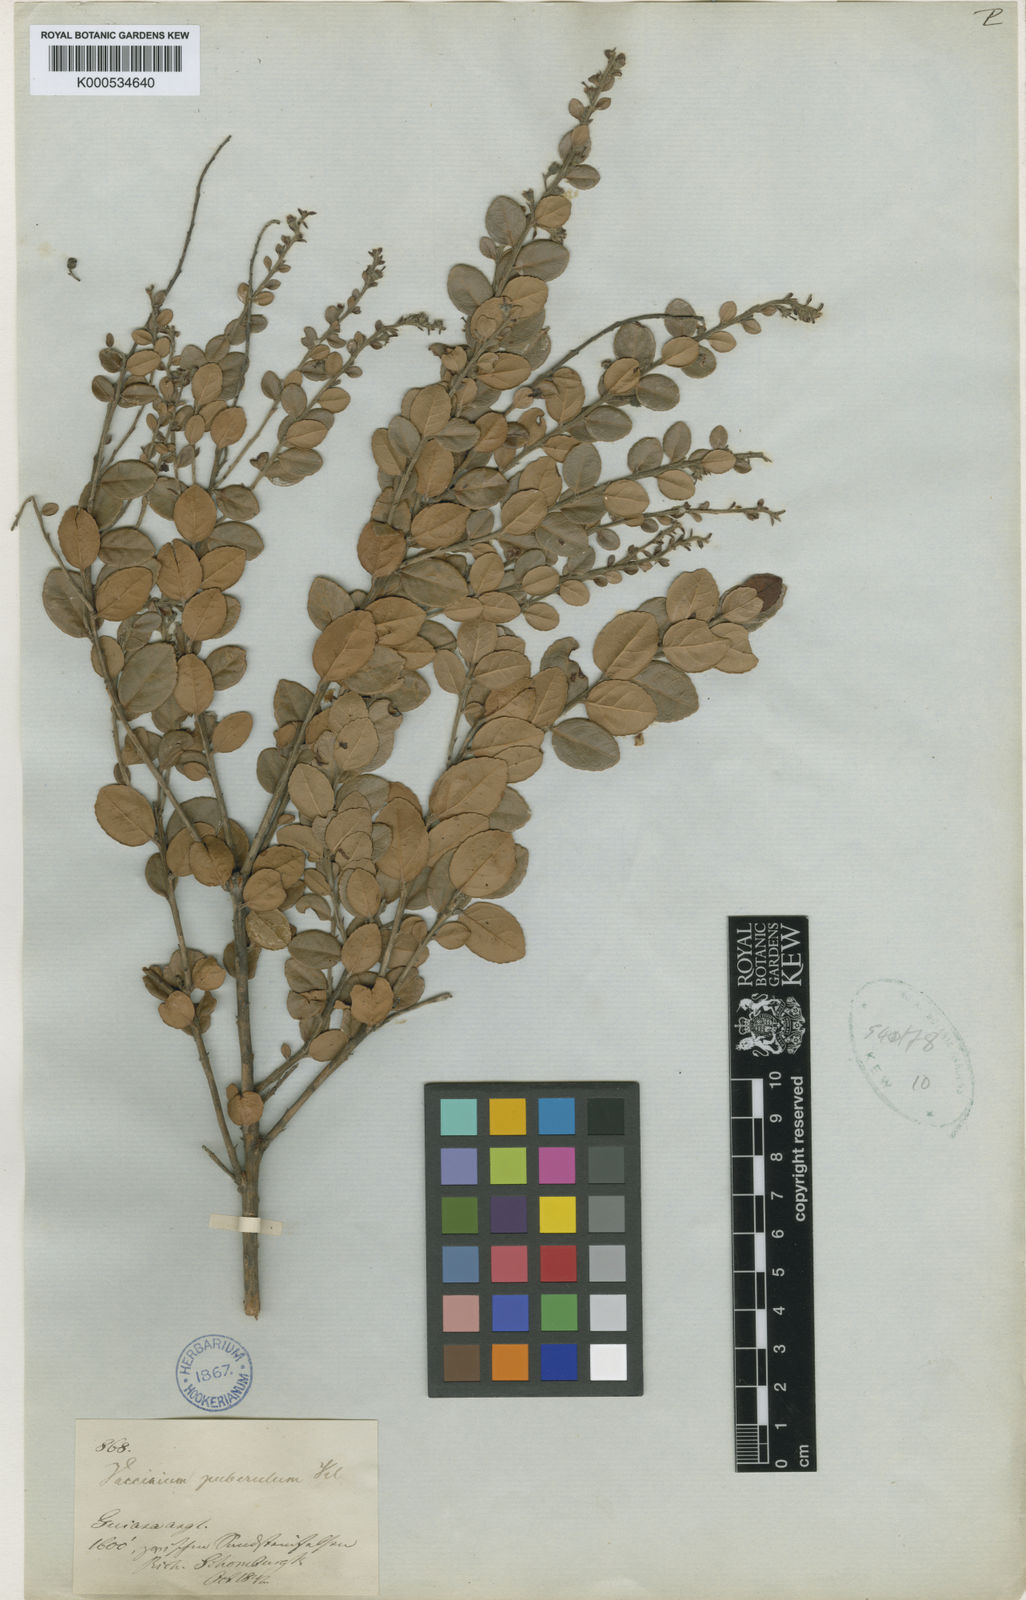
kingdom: Plantae
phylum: Tracheophyta
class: Magnoliopsida
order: Ericales
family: Ericaceae
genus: Vaccinium
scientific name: Vaccinium puberulum
